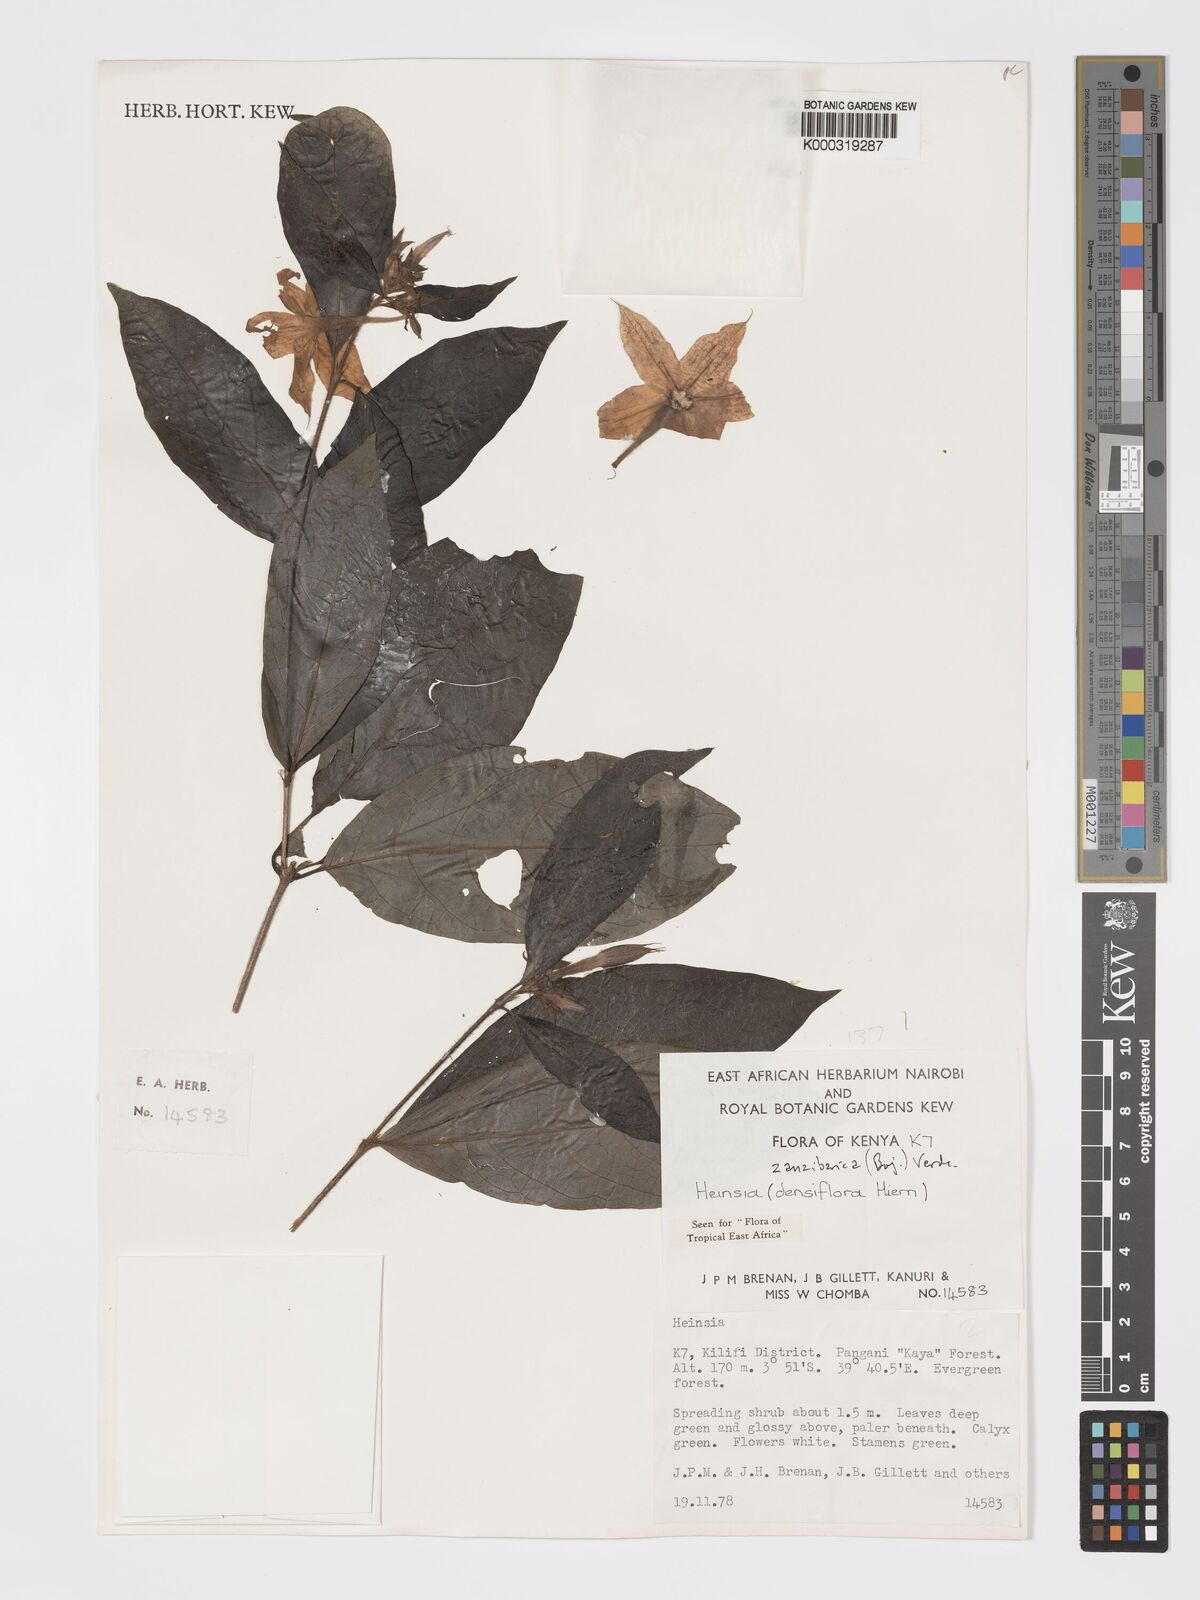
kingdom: Plantae
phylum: Tracheophyta
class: Magnoliopsida
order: Gentianales
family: Rubiaceae
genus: Heinsia
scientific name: Heinsia zanzibarica
